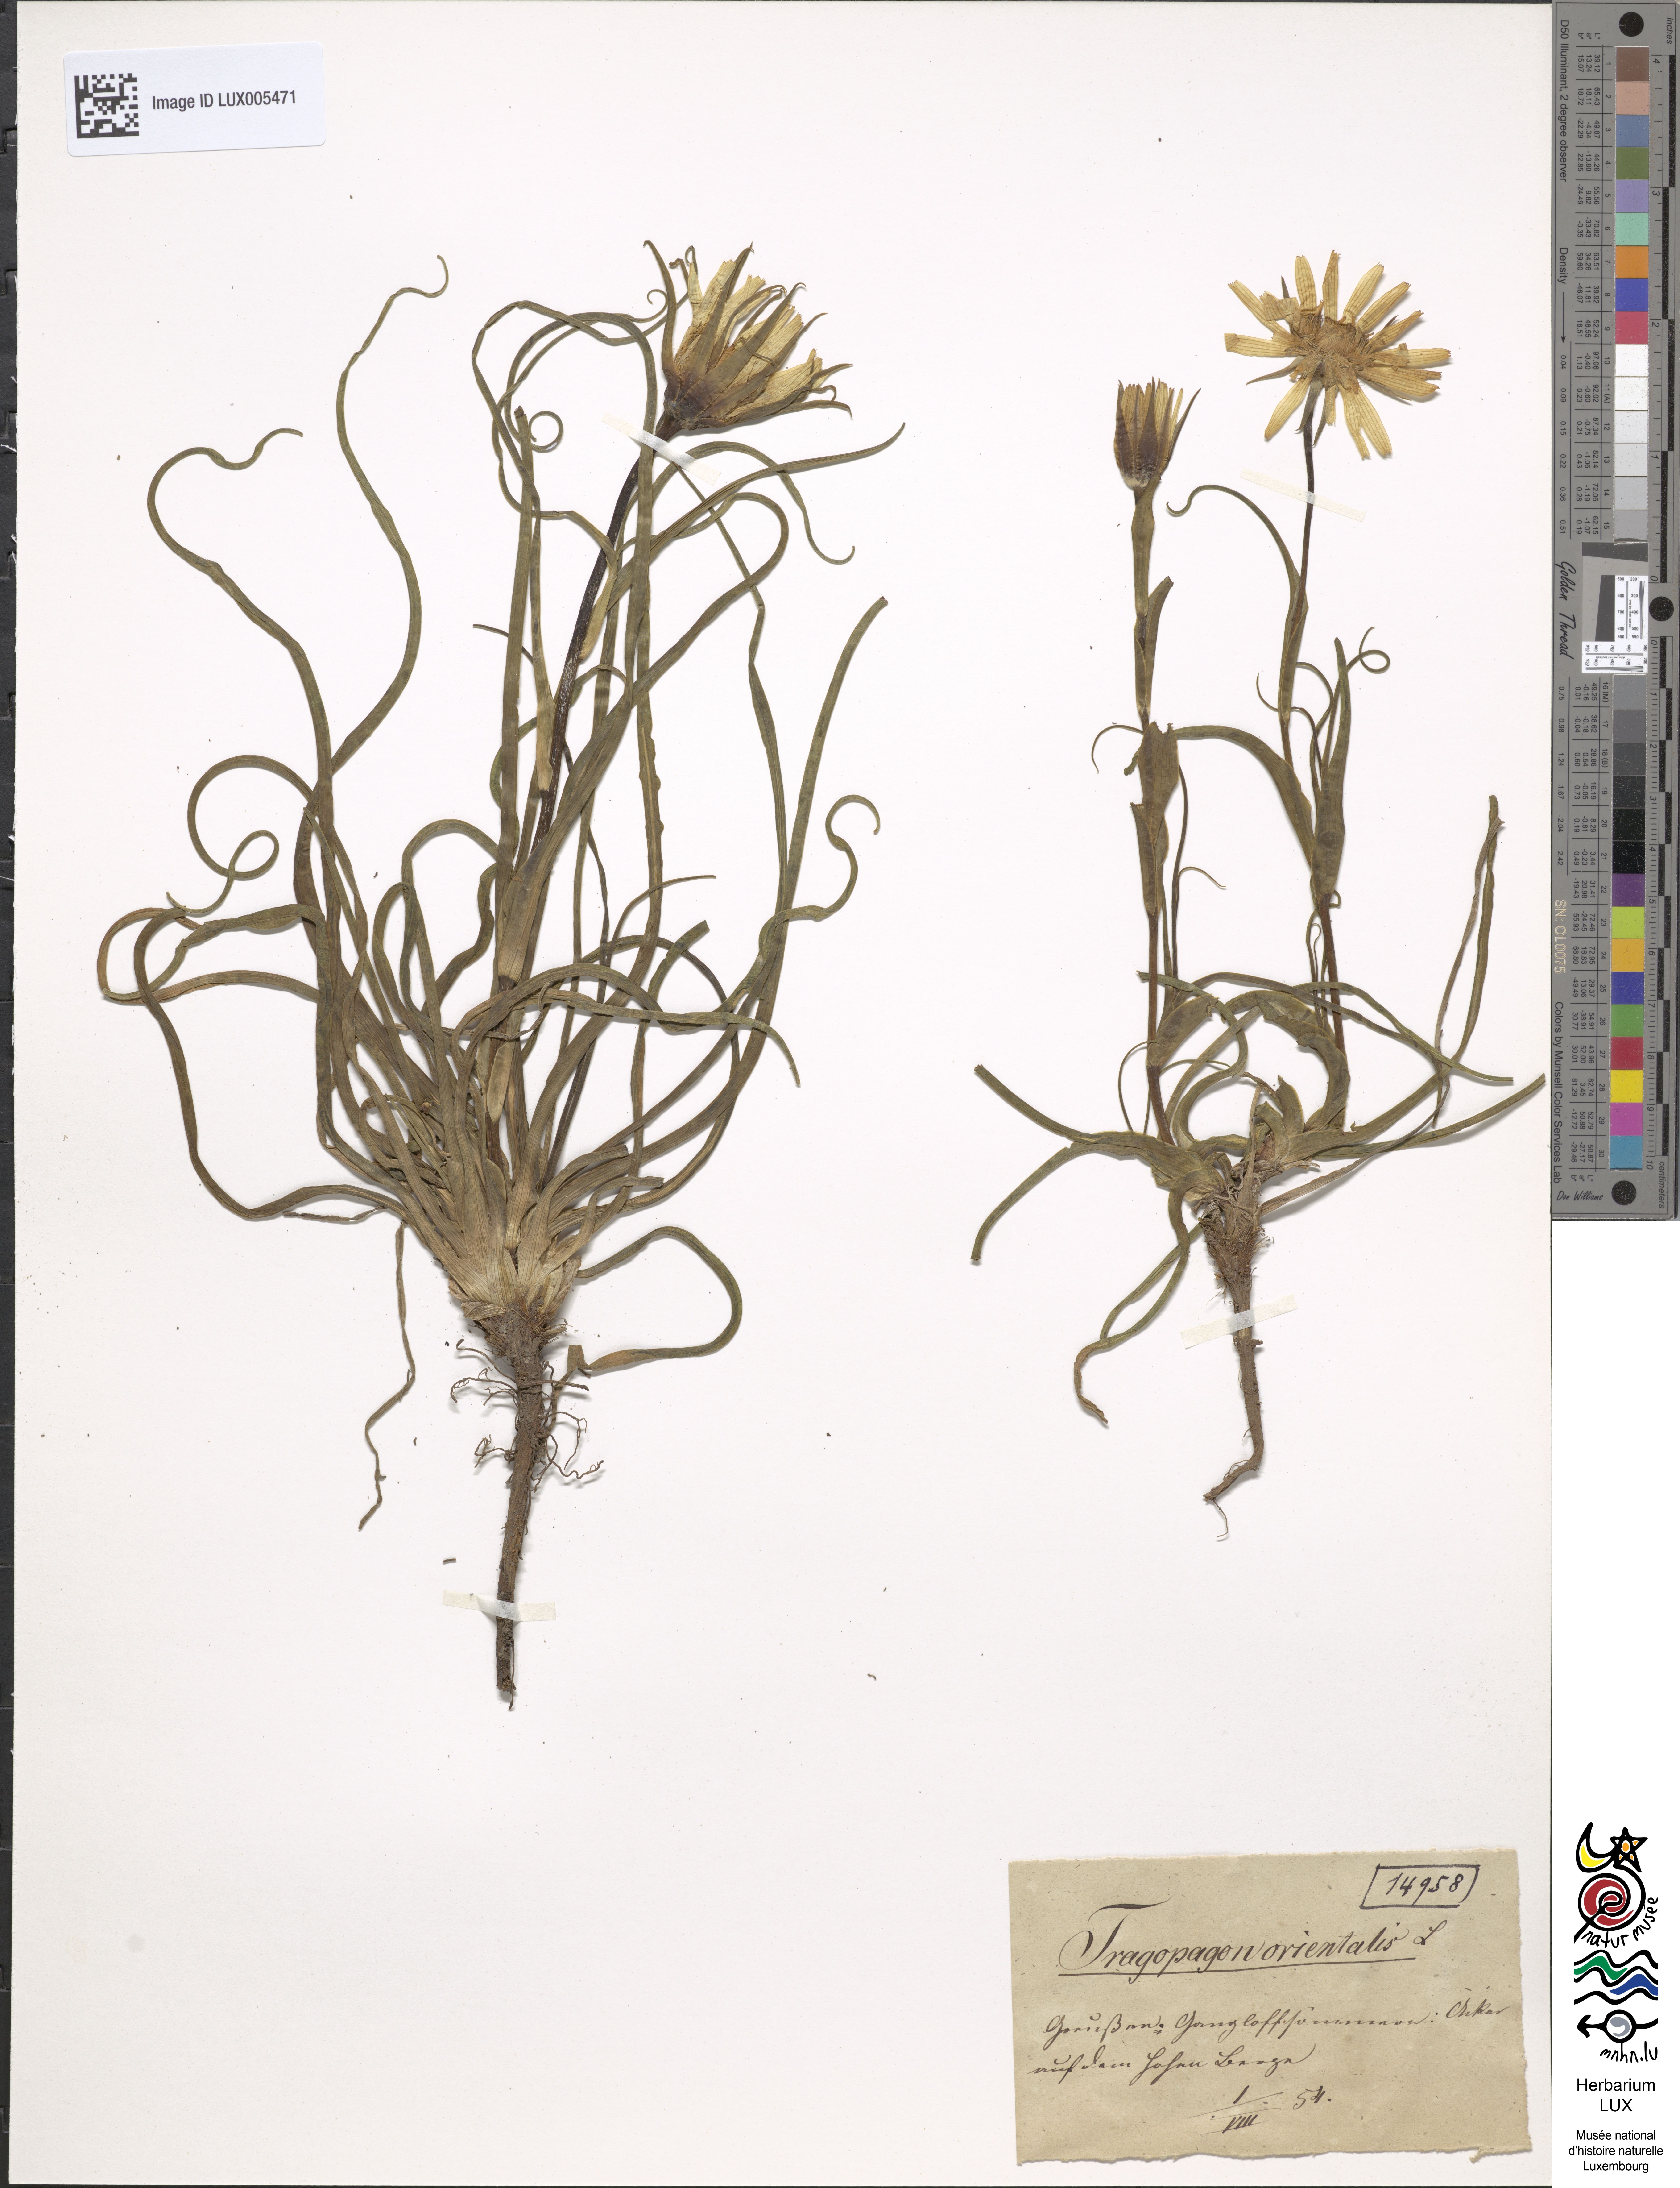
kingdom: Plantae
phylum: Tracheophyta
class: Magnoliopsida
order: Asterales
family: Asteraceae
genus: Tragopogon
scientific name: Tragopogon orientalis
